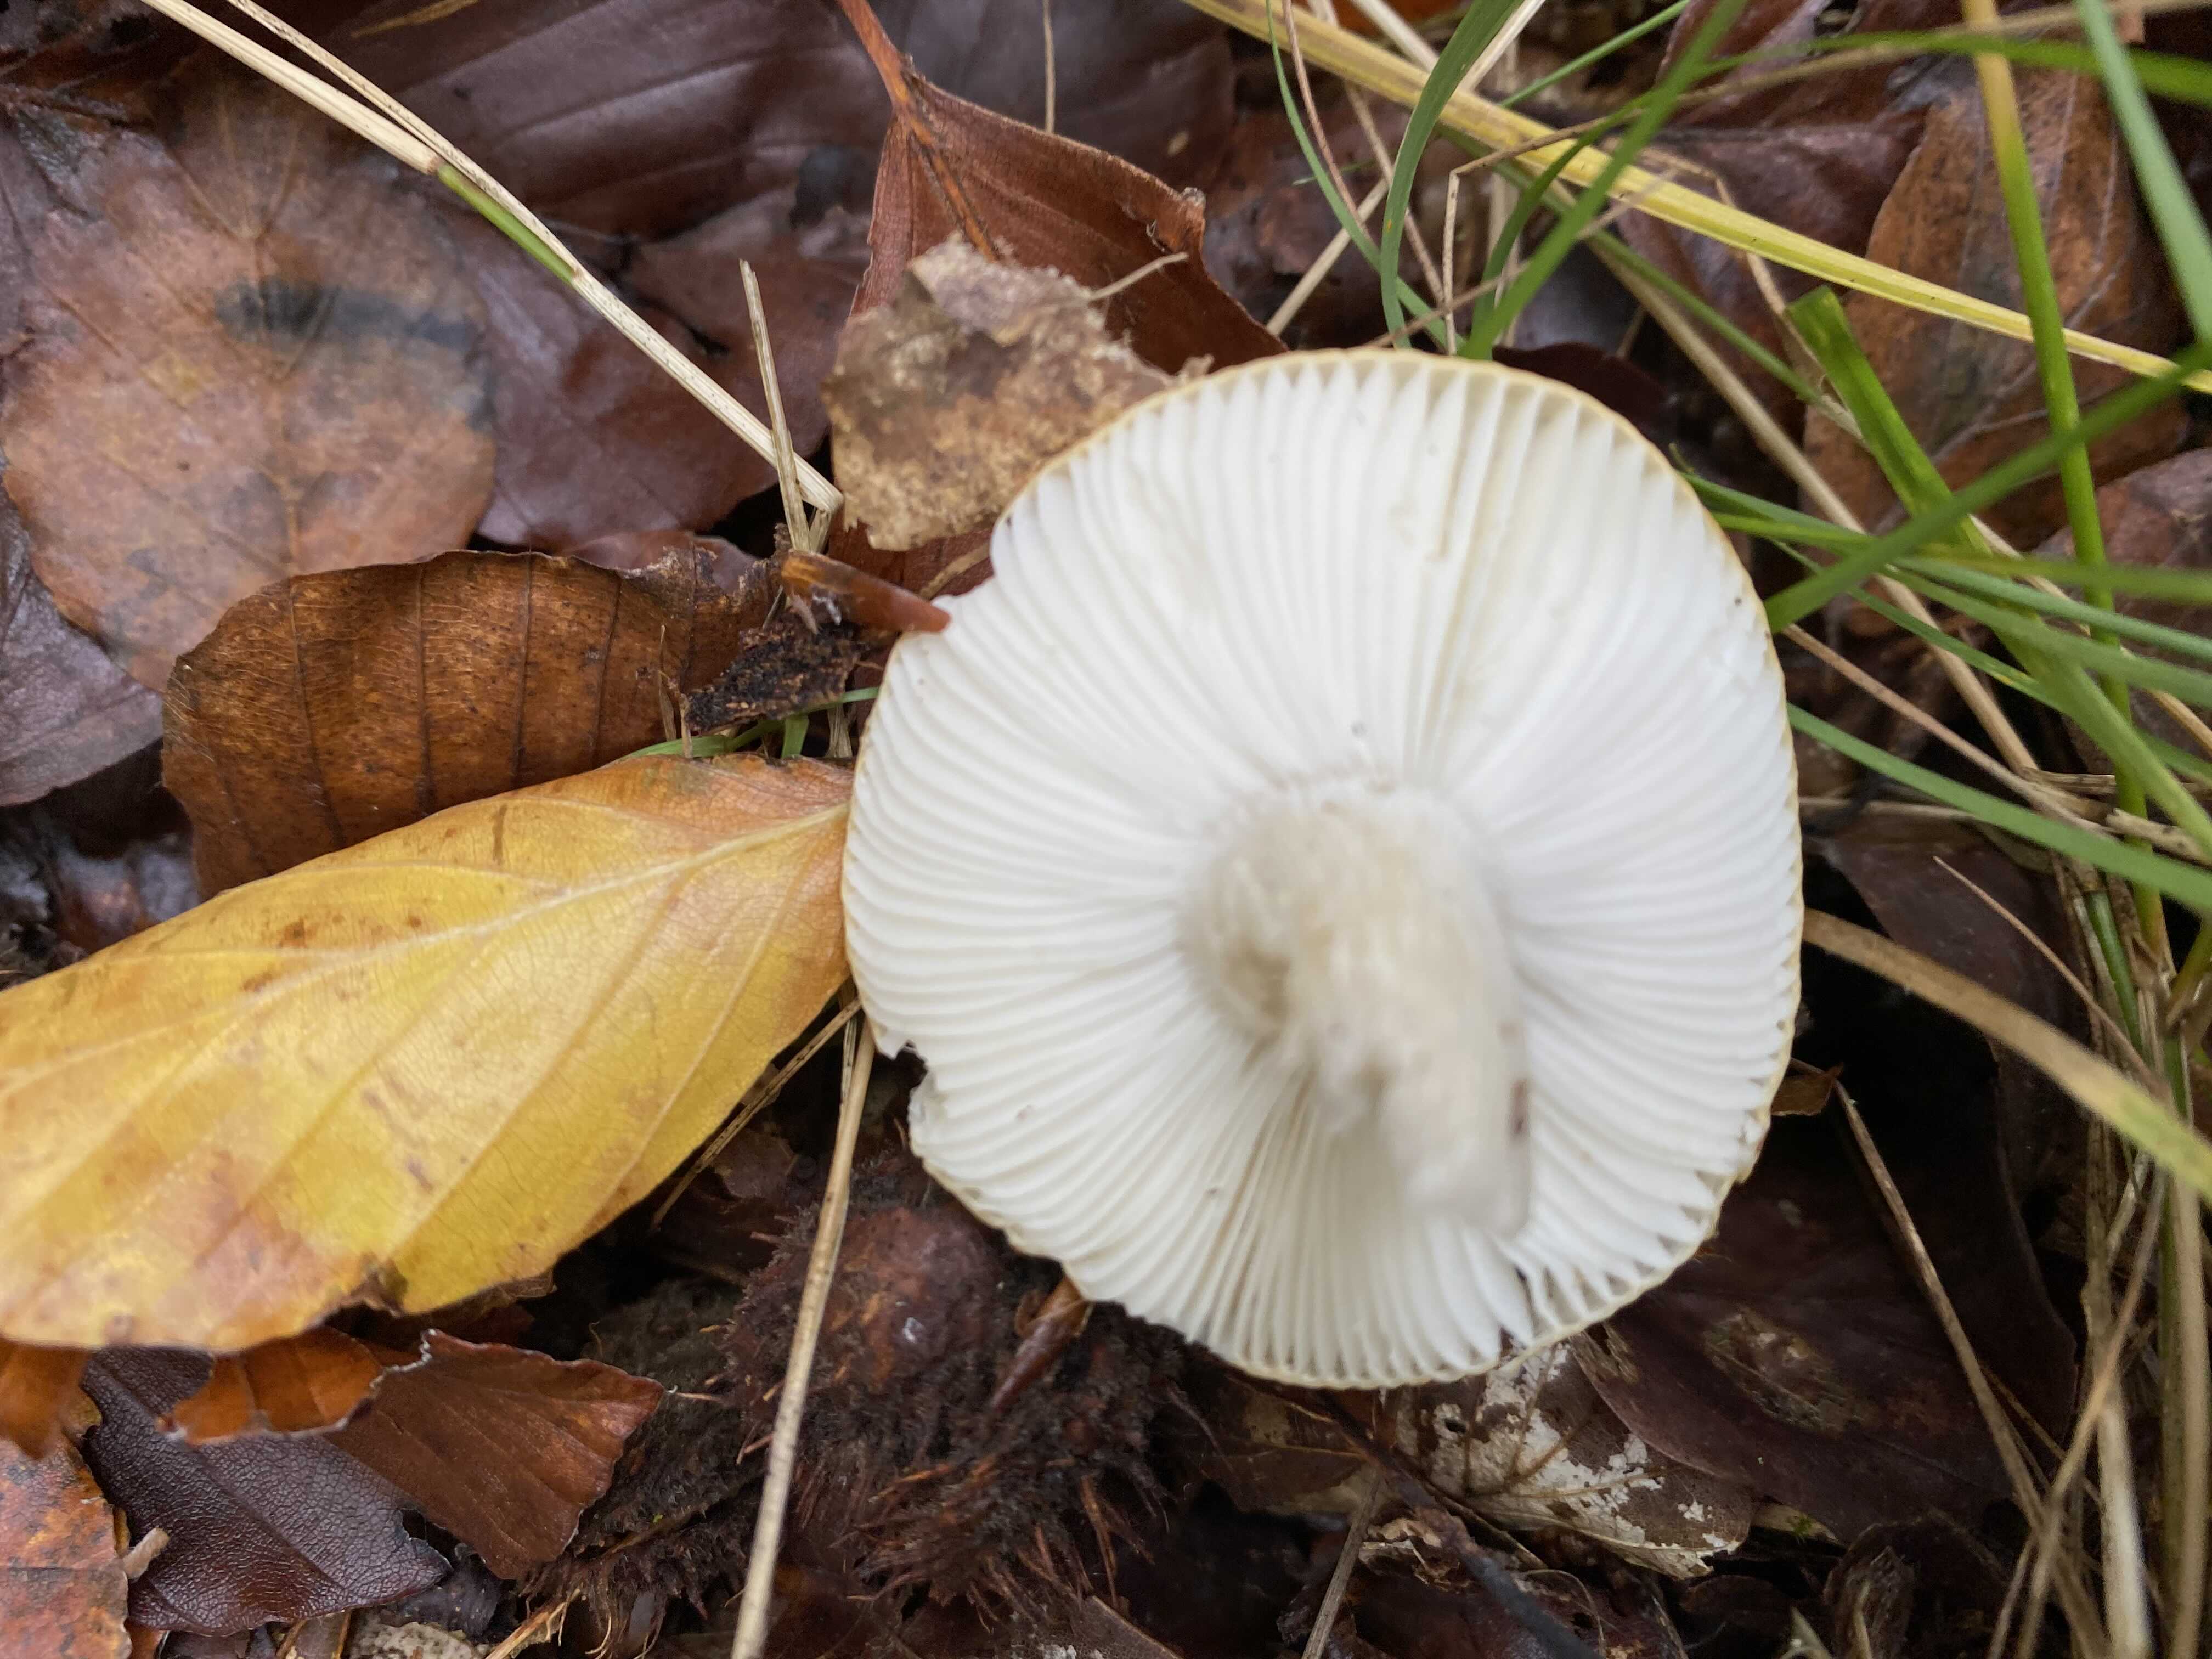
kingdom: Fungi
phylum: Basidiomycota
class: Agaricomycetes
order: Russulales
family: Russulaceae
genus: Russula
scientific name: Russula ochroleuca
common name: okkergul skørhat
